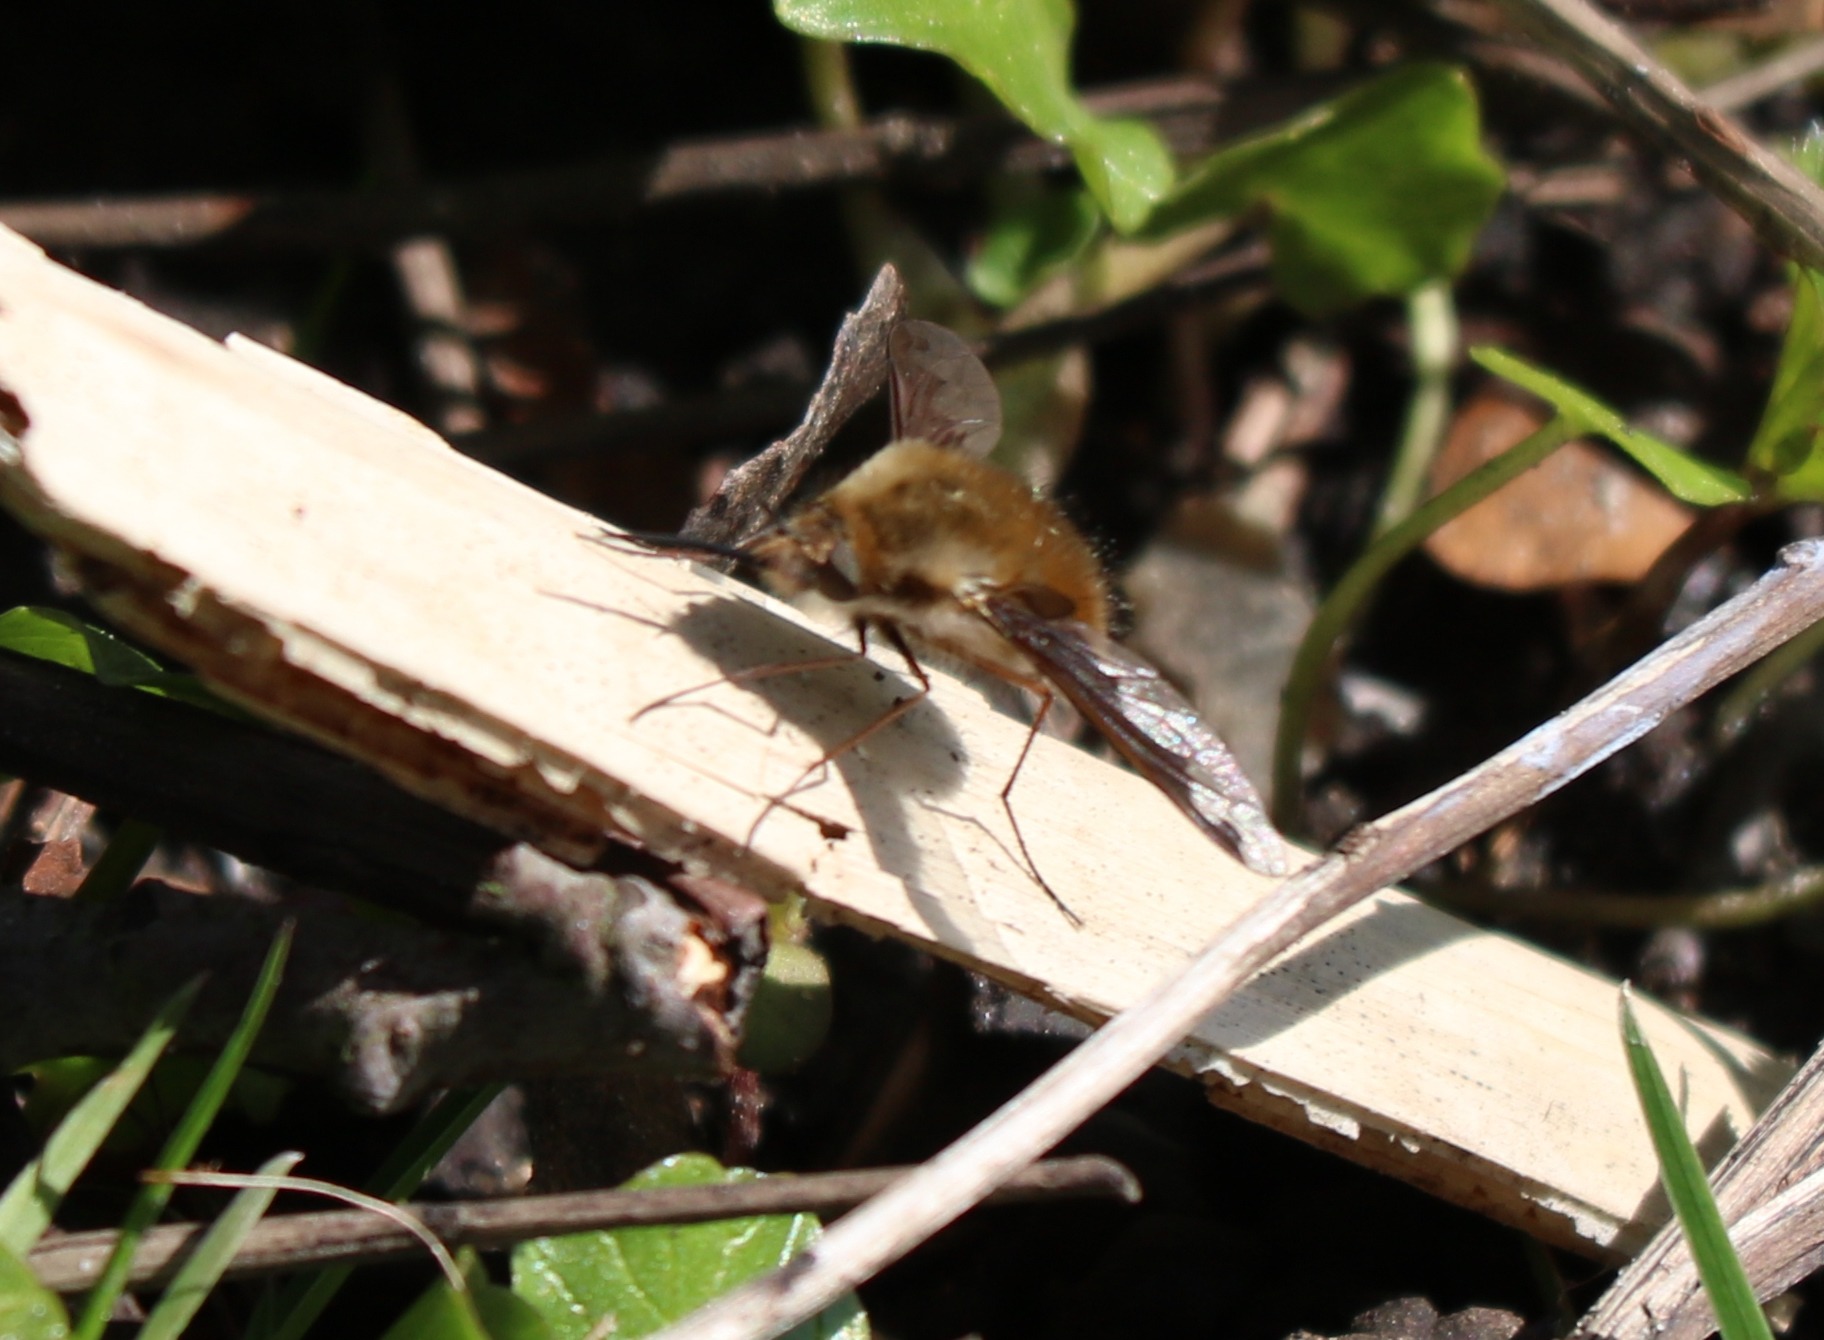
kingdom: Animalia
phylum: Arthropoda
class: Insecta
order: Diptera
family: Bombyliidae
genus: Bombylius
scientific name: Bombylius major
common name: Stor humleflue
